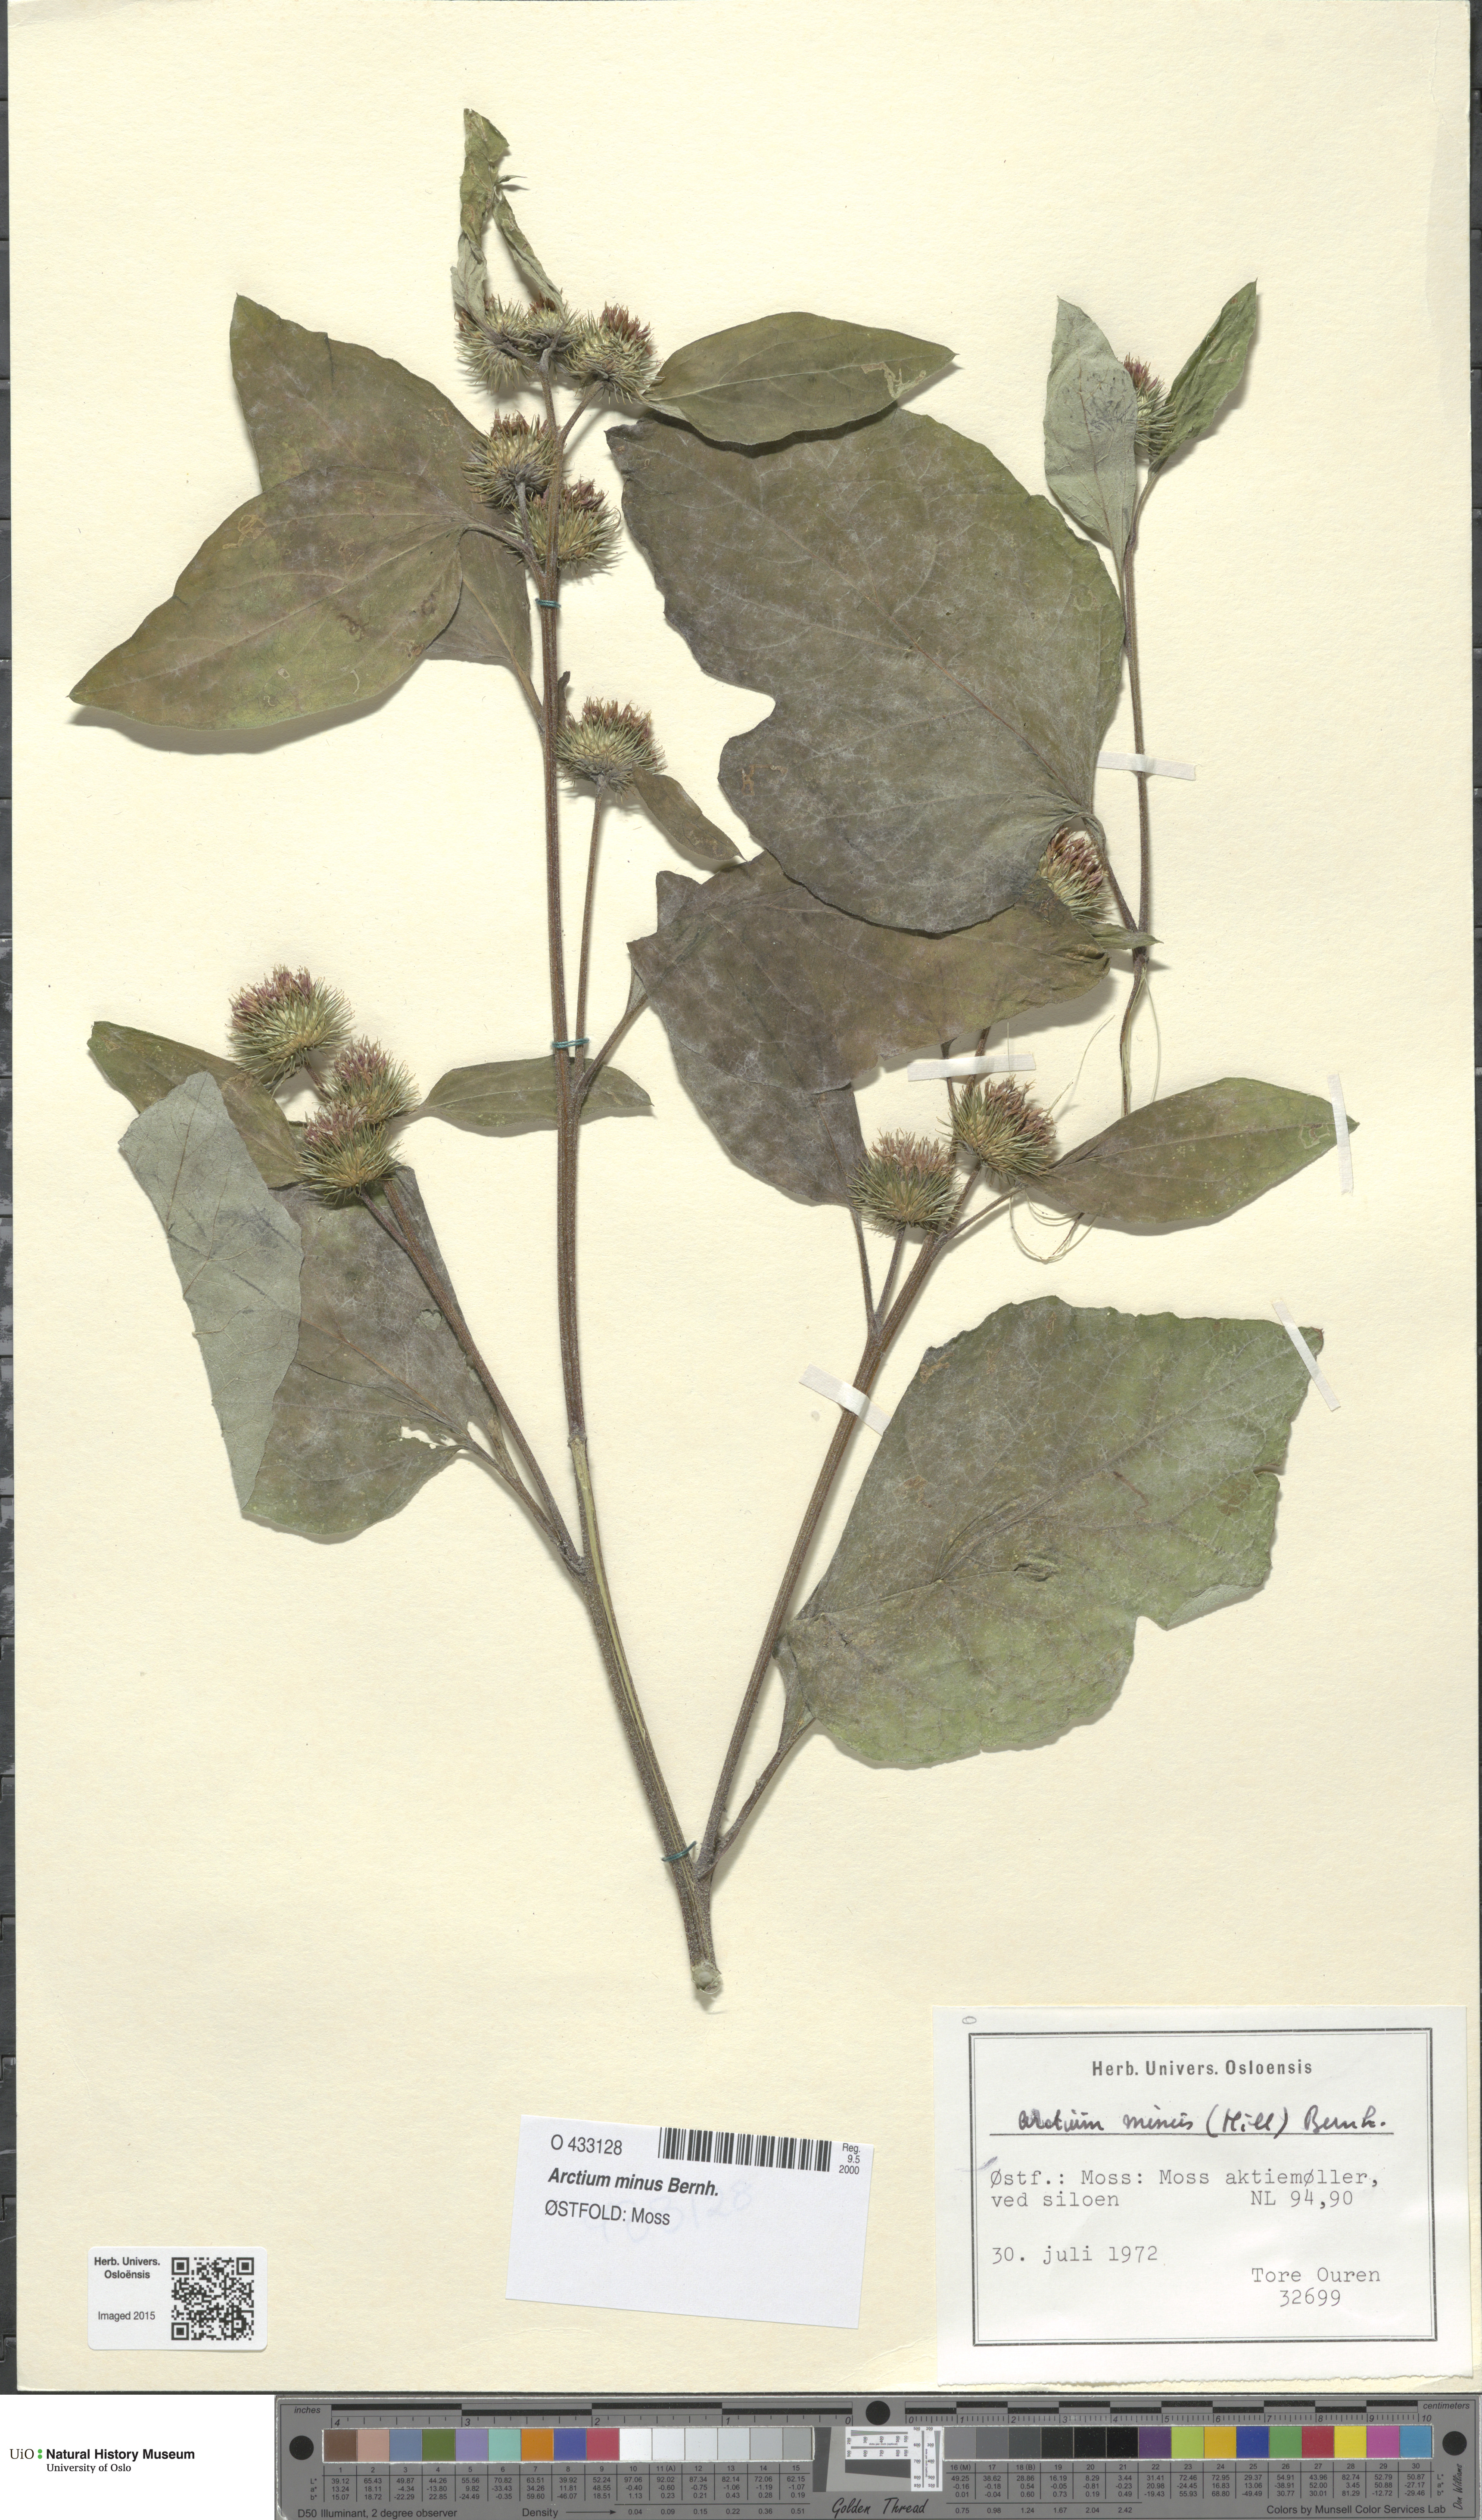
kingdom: Plantae
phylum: Tracheophyta
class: Magnoliopsida
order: Asterales
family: Asteraceae
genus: Arctium
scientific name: Arctium minus
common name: Lesser burdock
